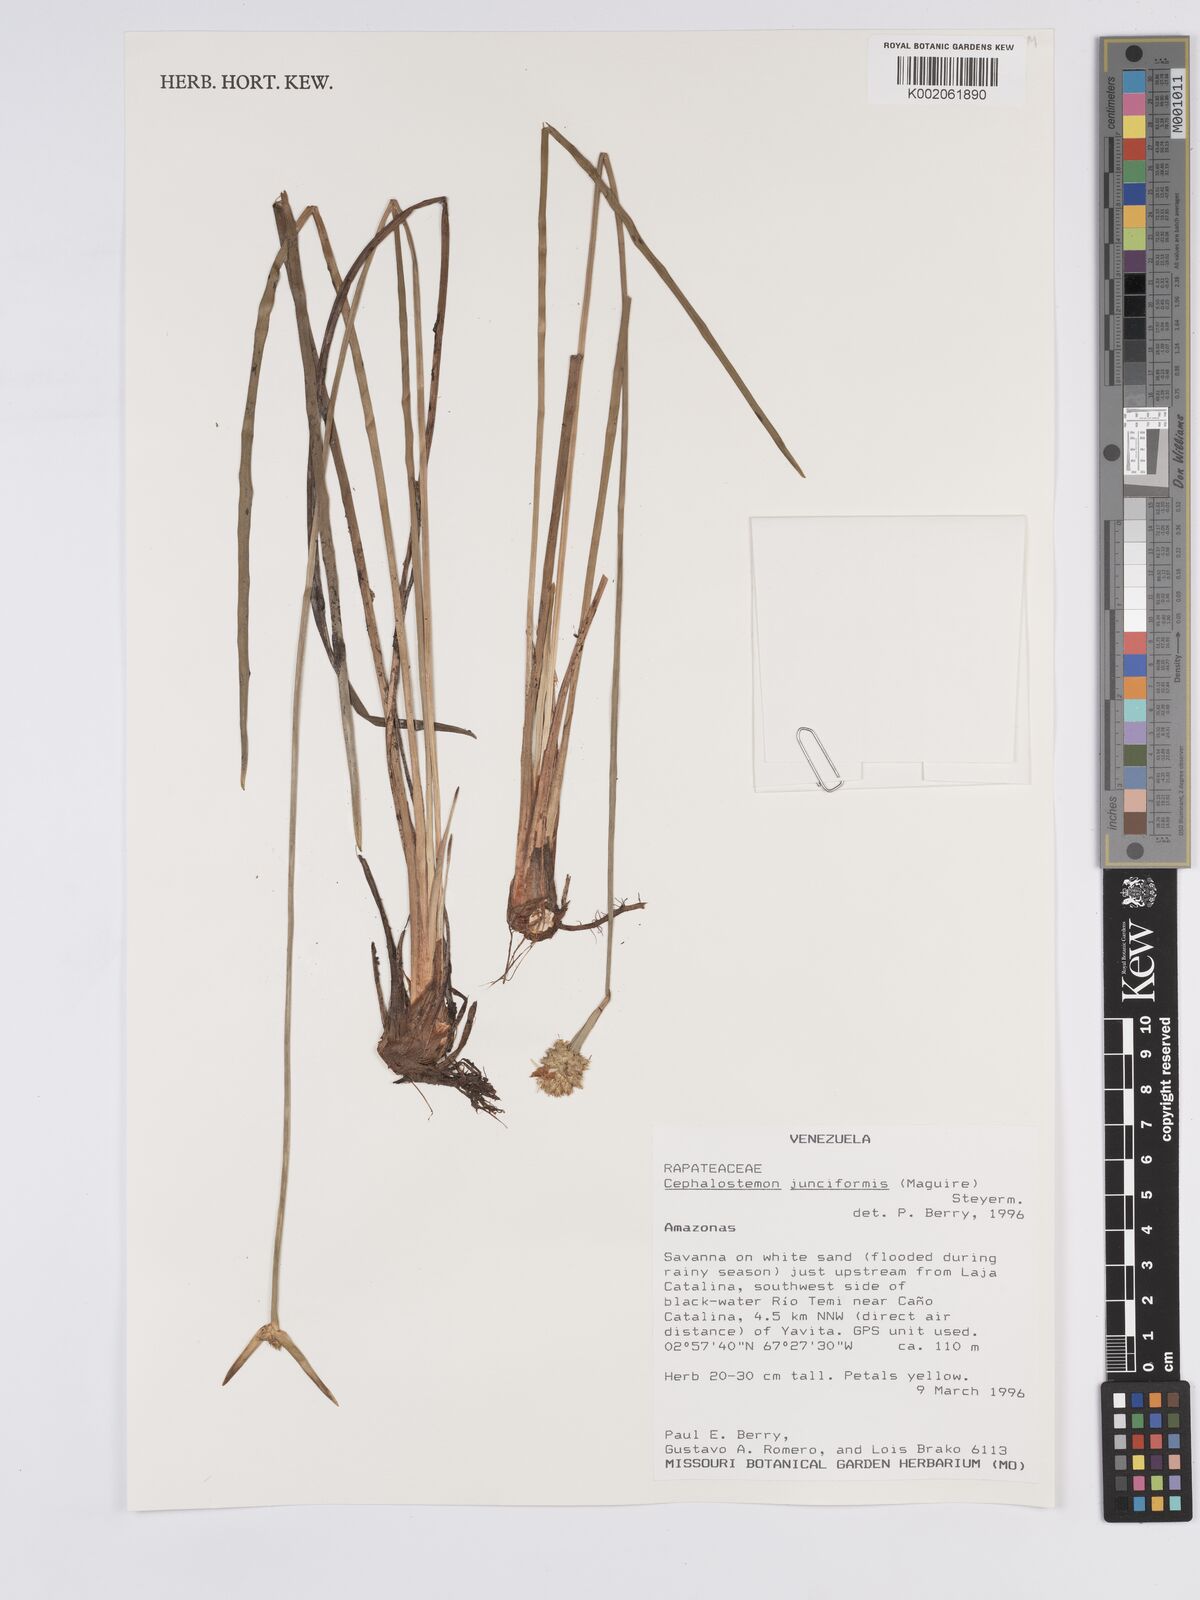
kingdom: Plantae
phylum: Tracheophyta
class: Liliopsida
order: Poales
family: Rapateaceae
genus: Duckea
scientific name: Duckea junciformis
